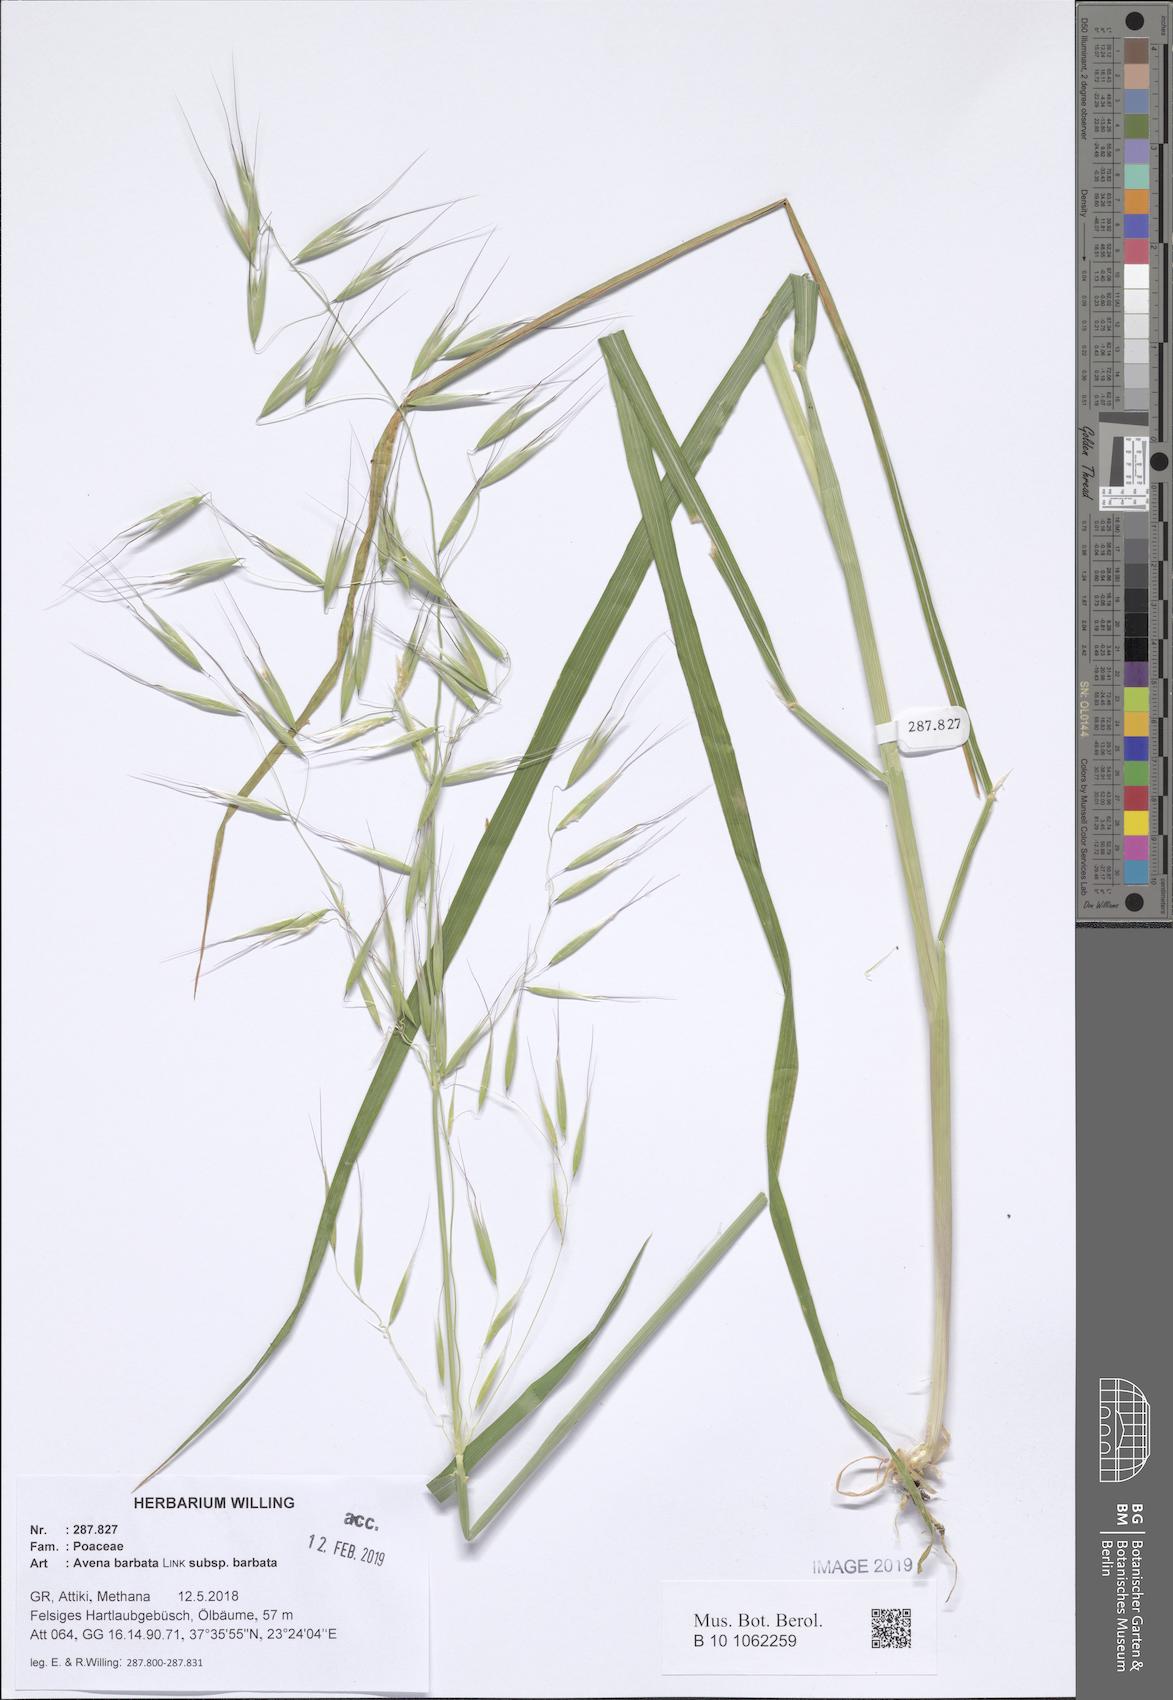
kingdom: Plantae
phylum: Tracheophyta
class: Liliopsida
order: Poales
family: Poaceae
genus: Avena
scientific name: Avena barbata
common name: Slender oat
